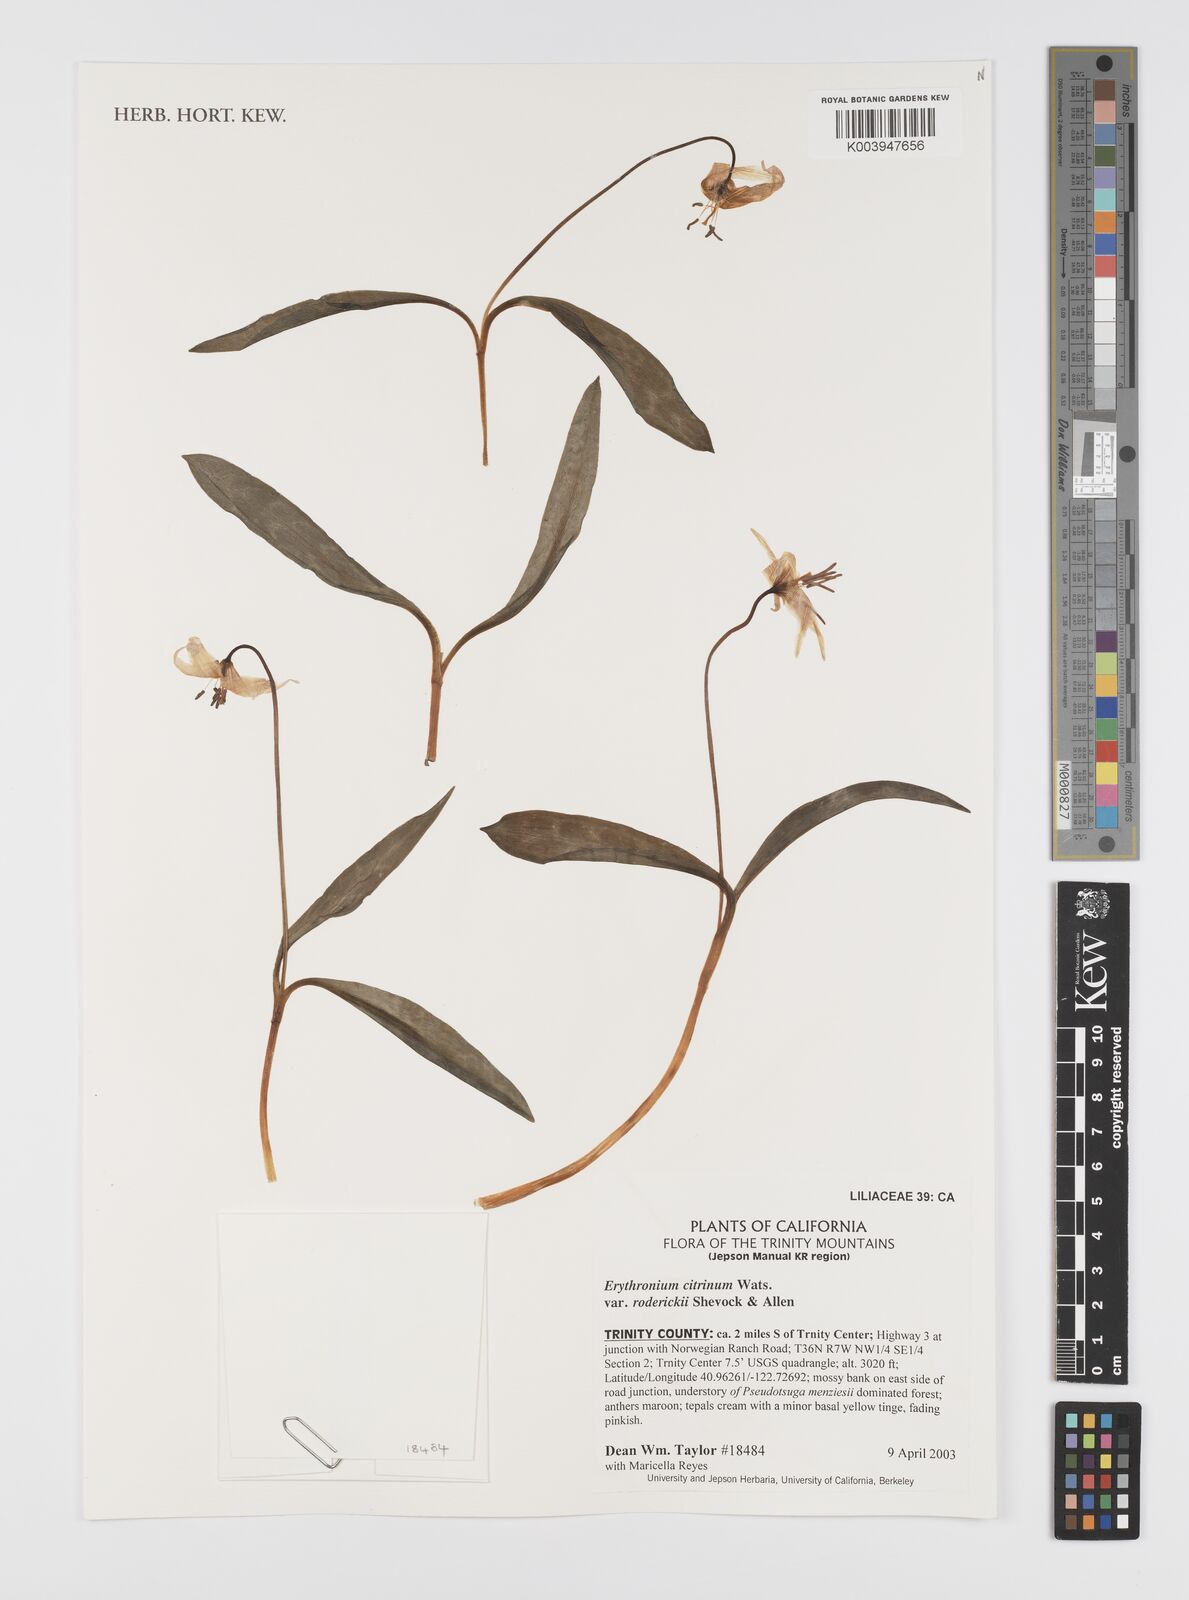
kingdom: Plantae
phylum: Tracheophyta
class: Liliopsida
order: Liliales
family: Liliaceae
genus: Erythronium
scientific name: Erythronium citrinum
